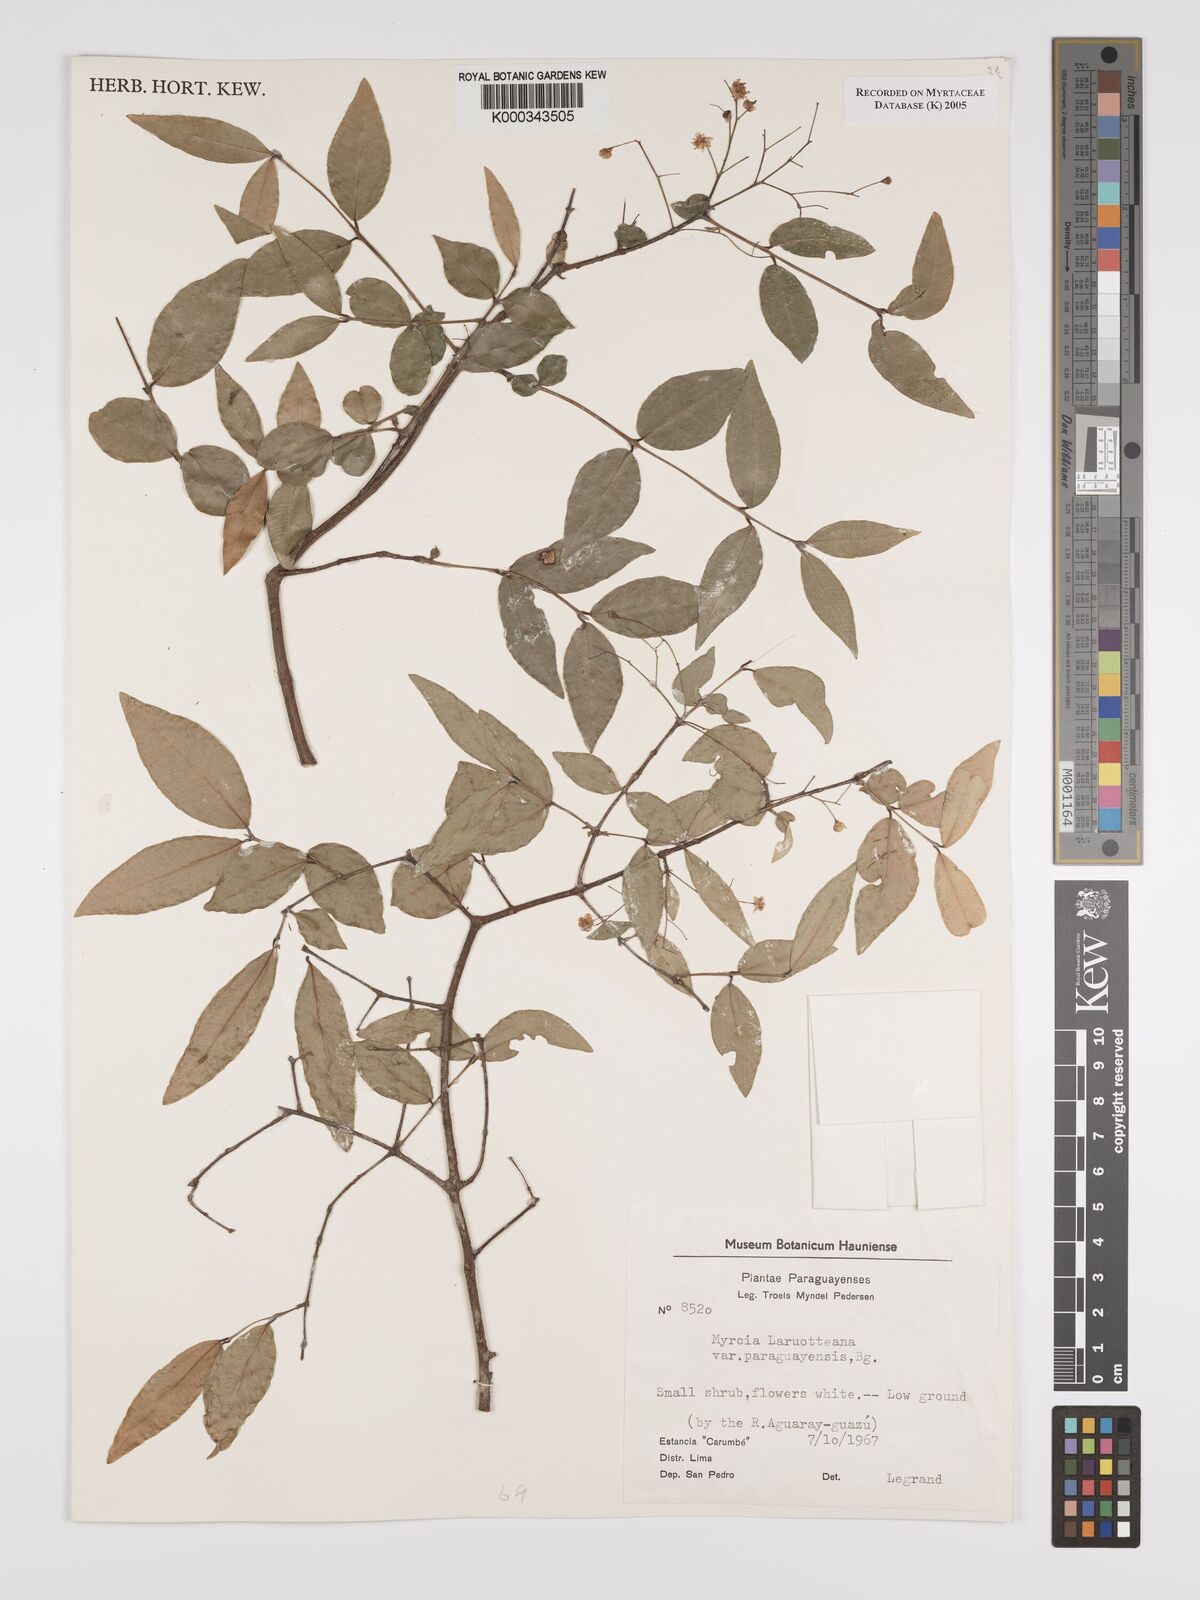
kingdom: Plantae
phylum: Tracheophyta
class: Magnoliopsida
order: Myrtales
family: Myrtaceae
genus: Myrcia
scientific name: Myrcia laruotteana
